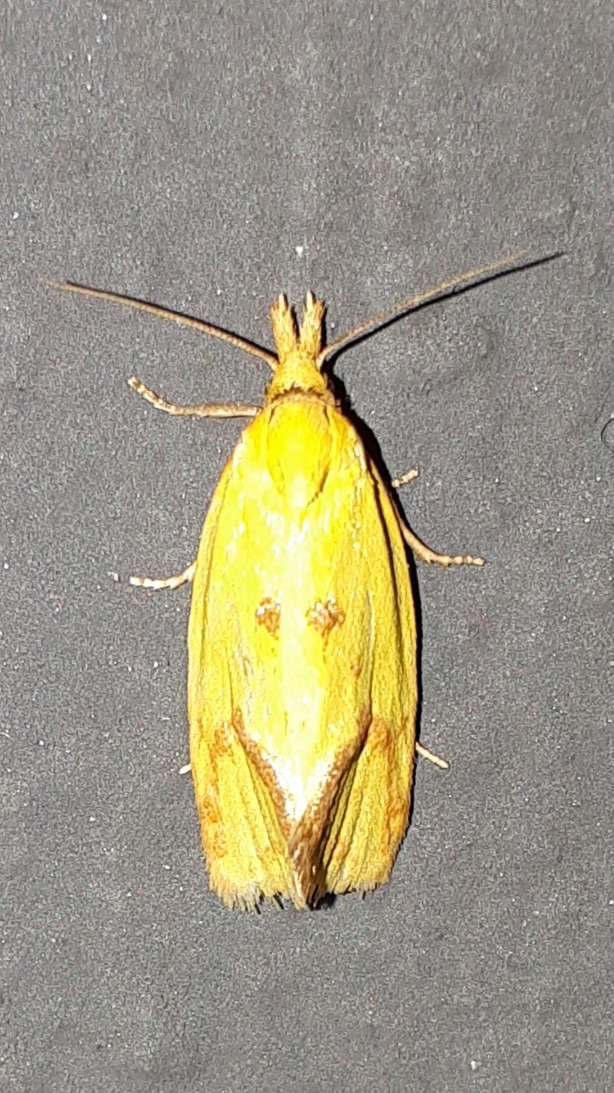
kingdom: Animalia
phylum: Arthropoda
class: Insecta
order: Lepidoptera
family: Tortricidae
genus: Agapeta
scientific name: Agapeta hamana
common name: Tidselgulvikler
